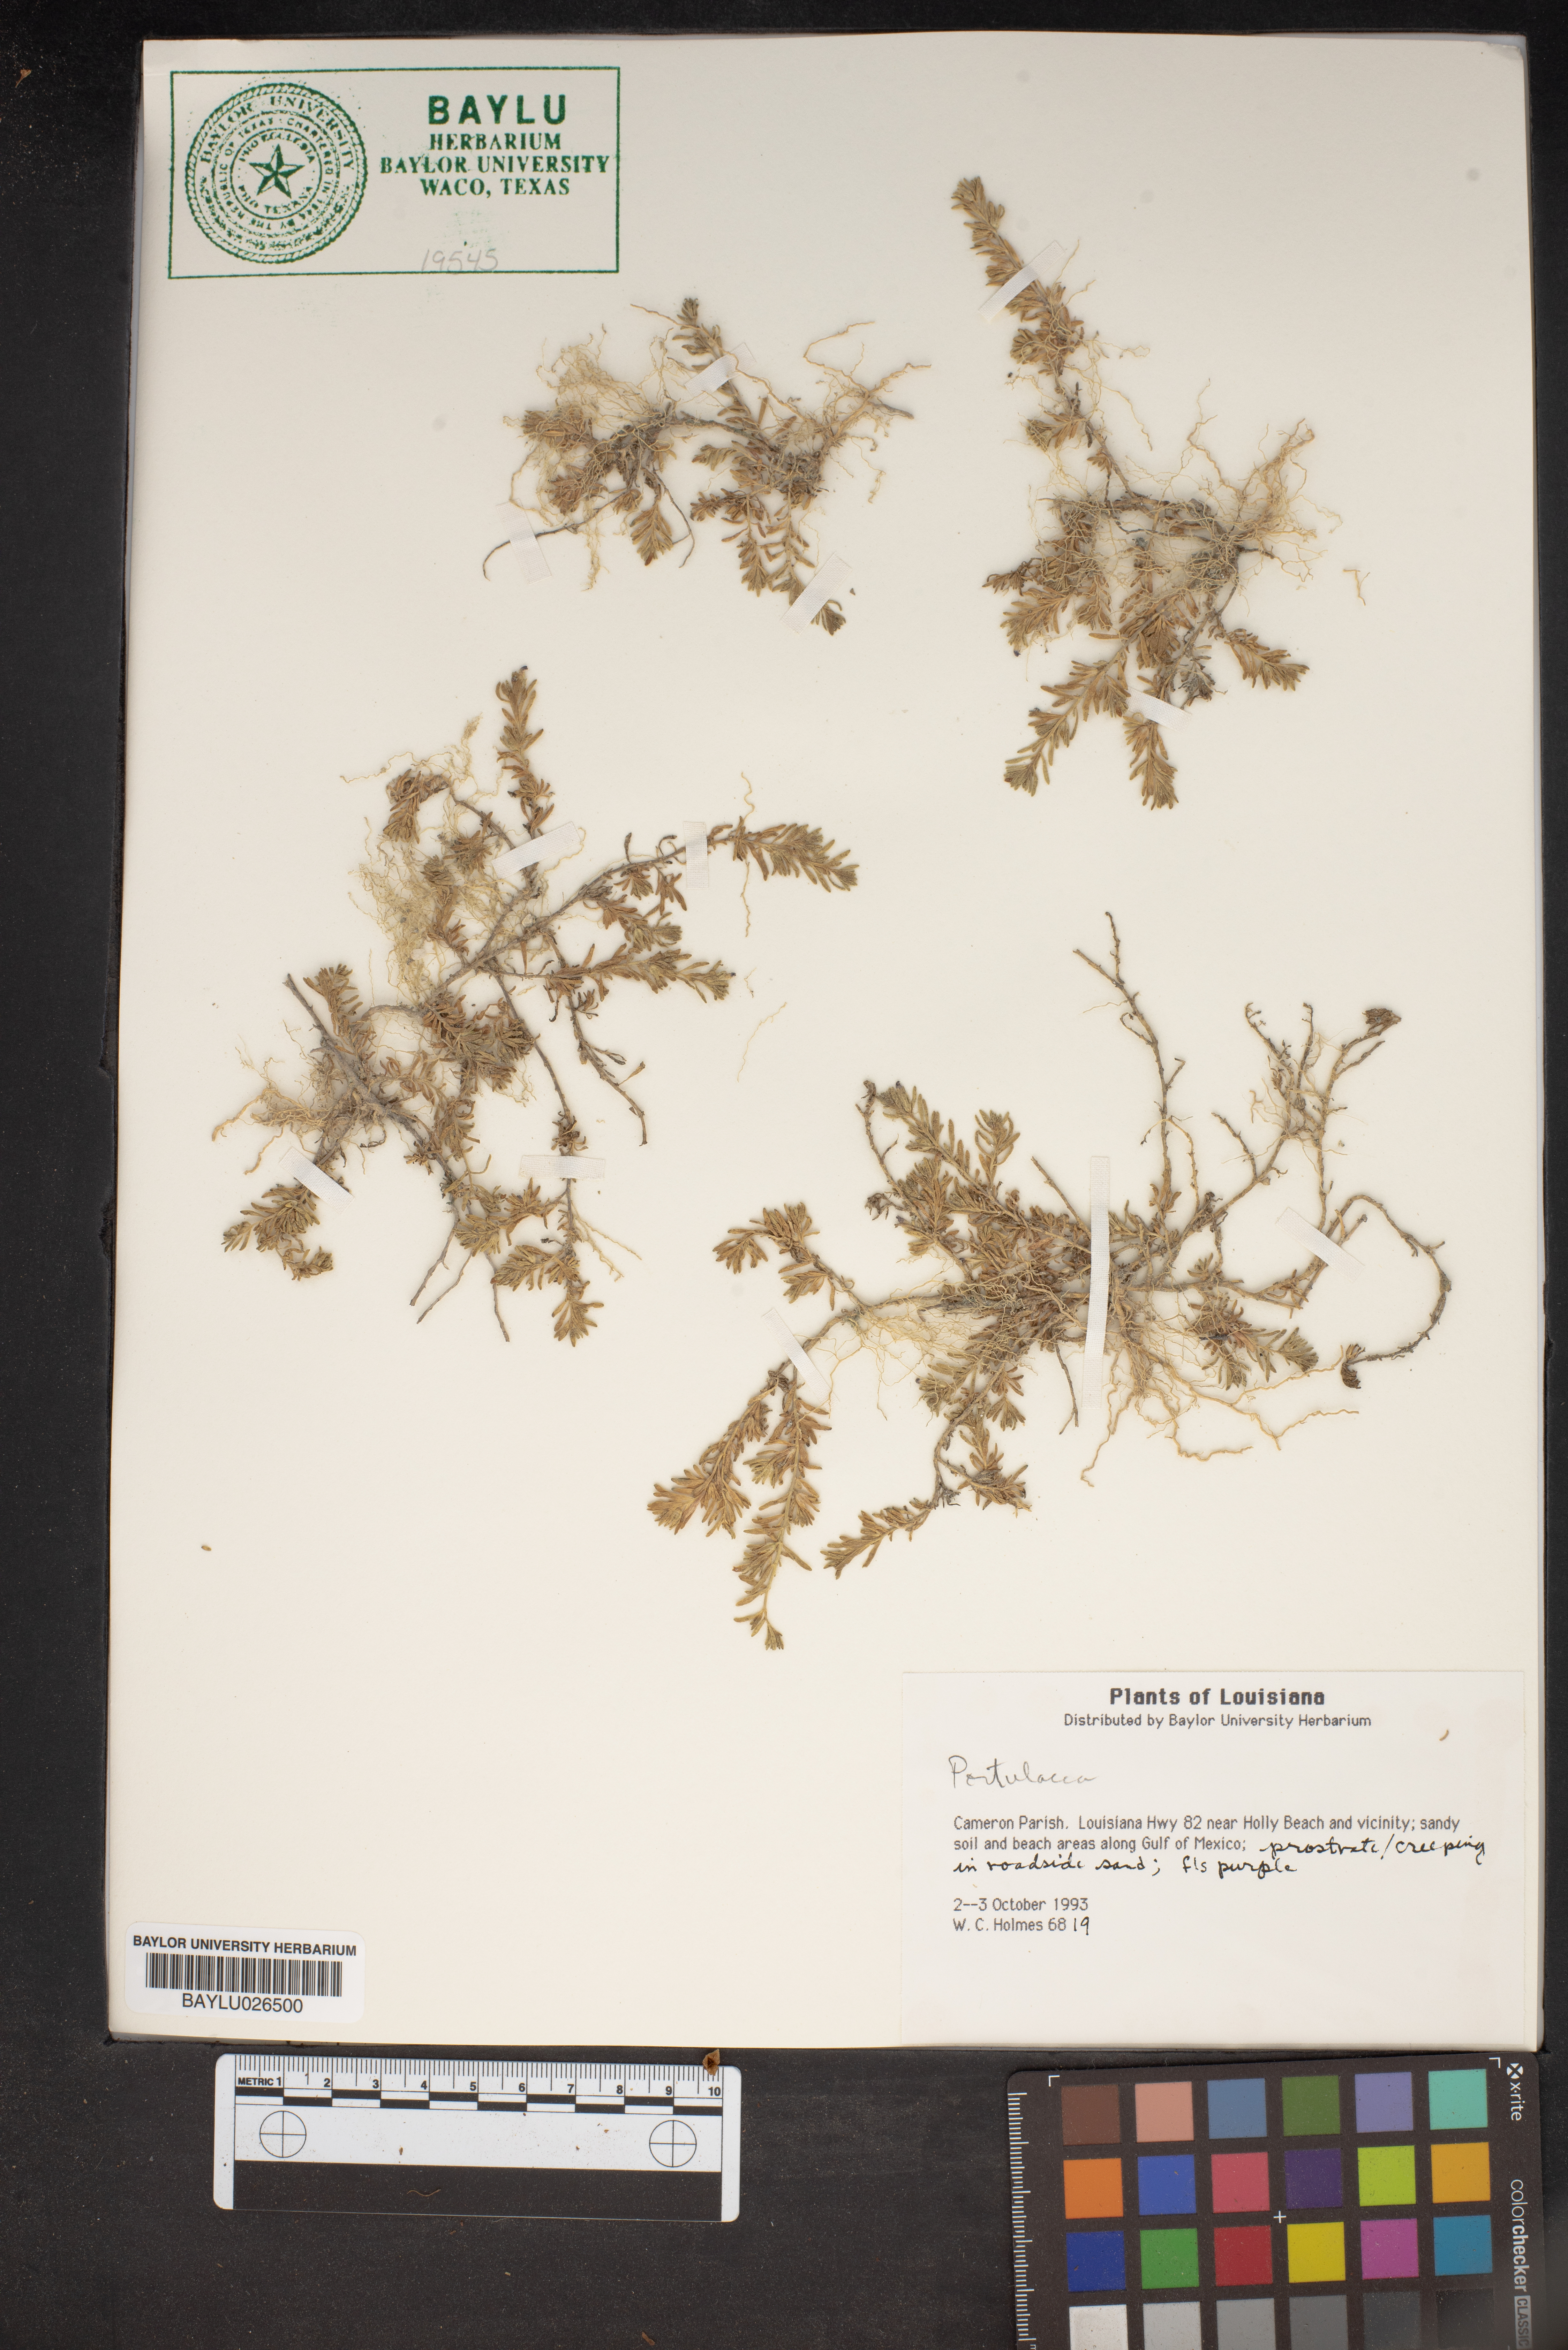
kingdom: Plantae
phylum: Tracheophyta
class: Magnoliopsida
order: Caryophyllales
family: Portulacaceae
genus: Portulaca
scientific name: Portulaca
